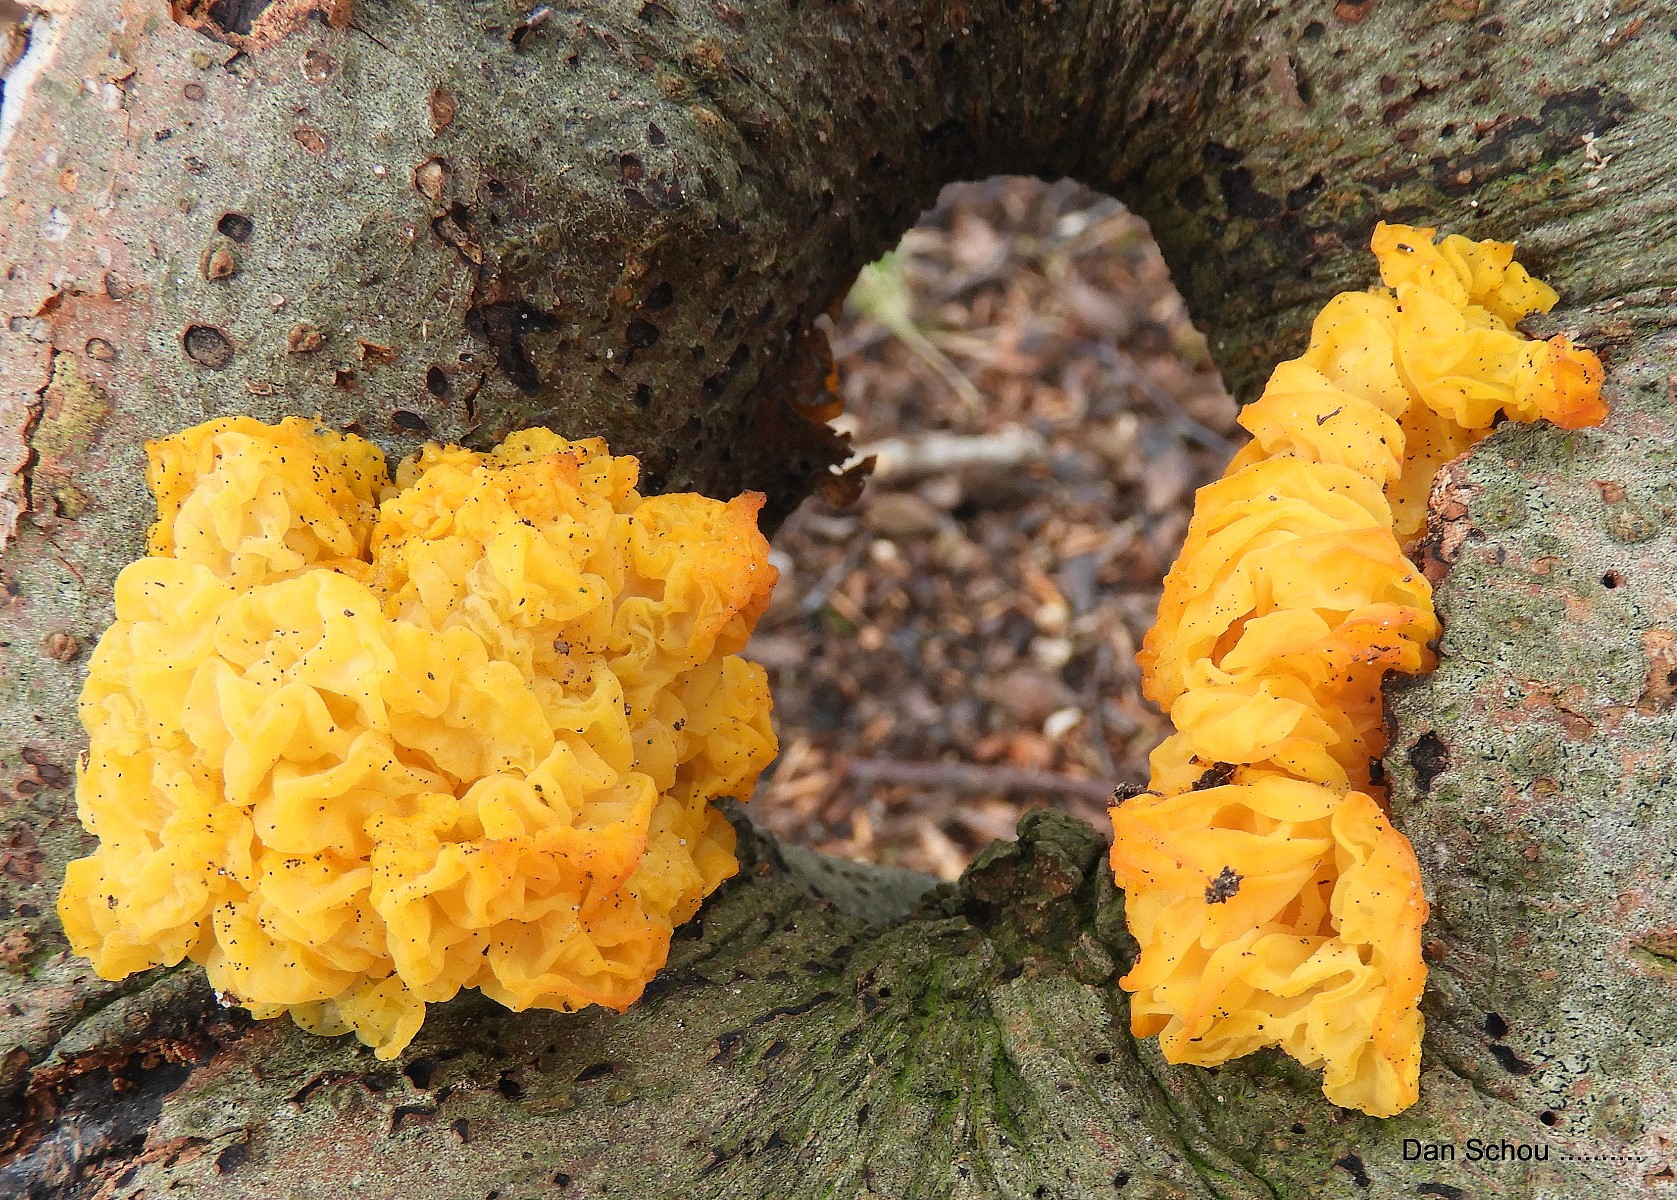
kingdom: Fungi
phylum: Basidiomycota
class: Tremellomycetes
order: Tremellales
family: Tremellaceae
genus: Tremella
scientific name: Tremella mesenterica
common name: gul bævresvamp
